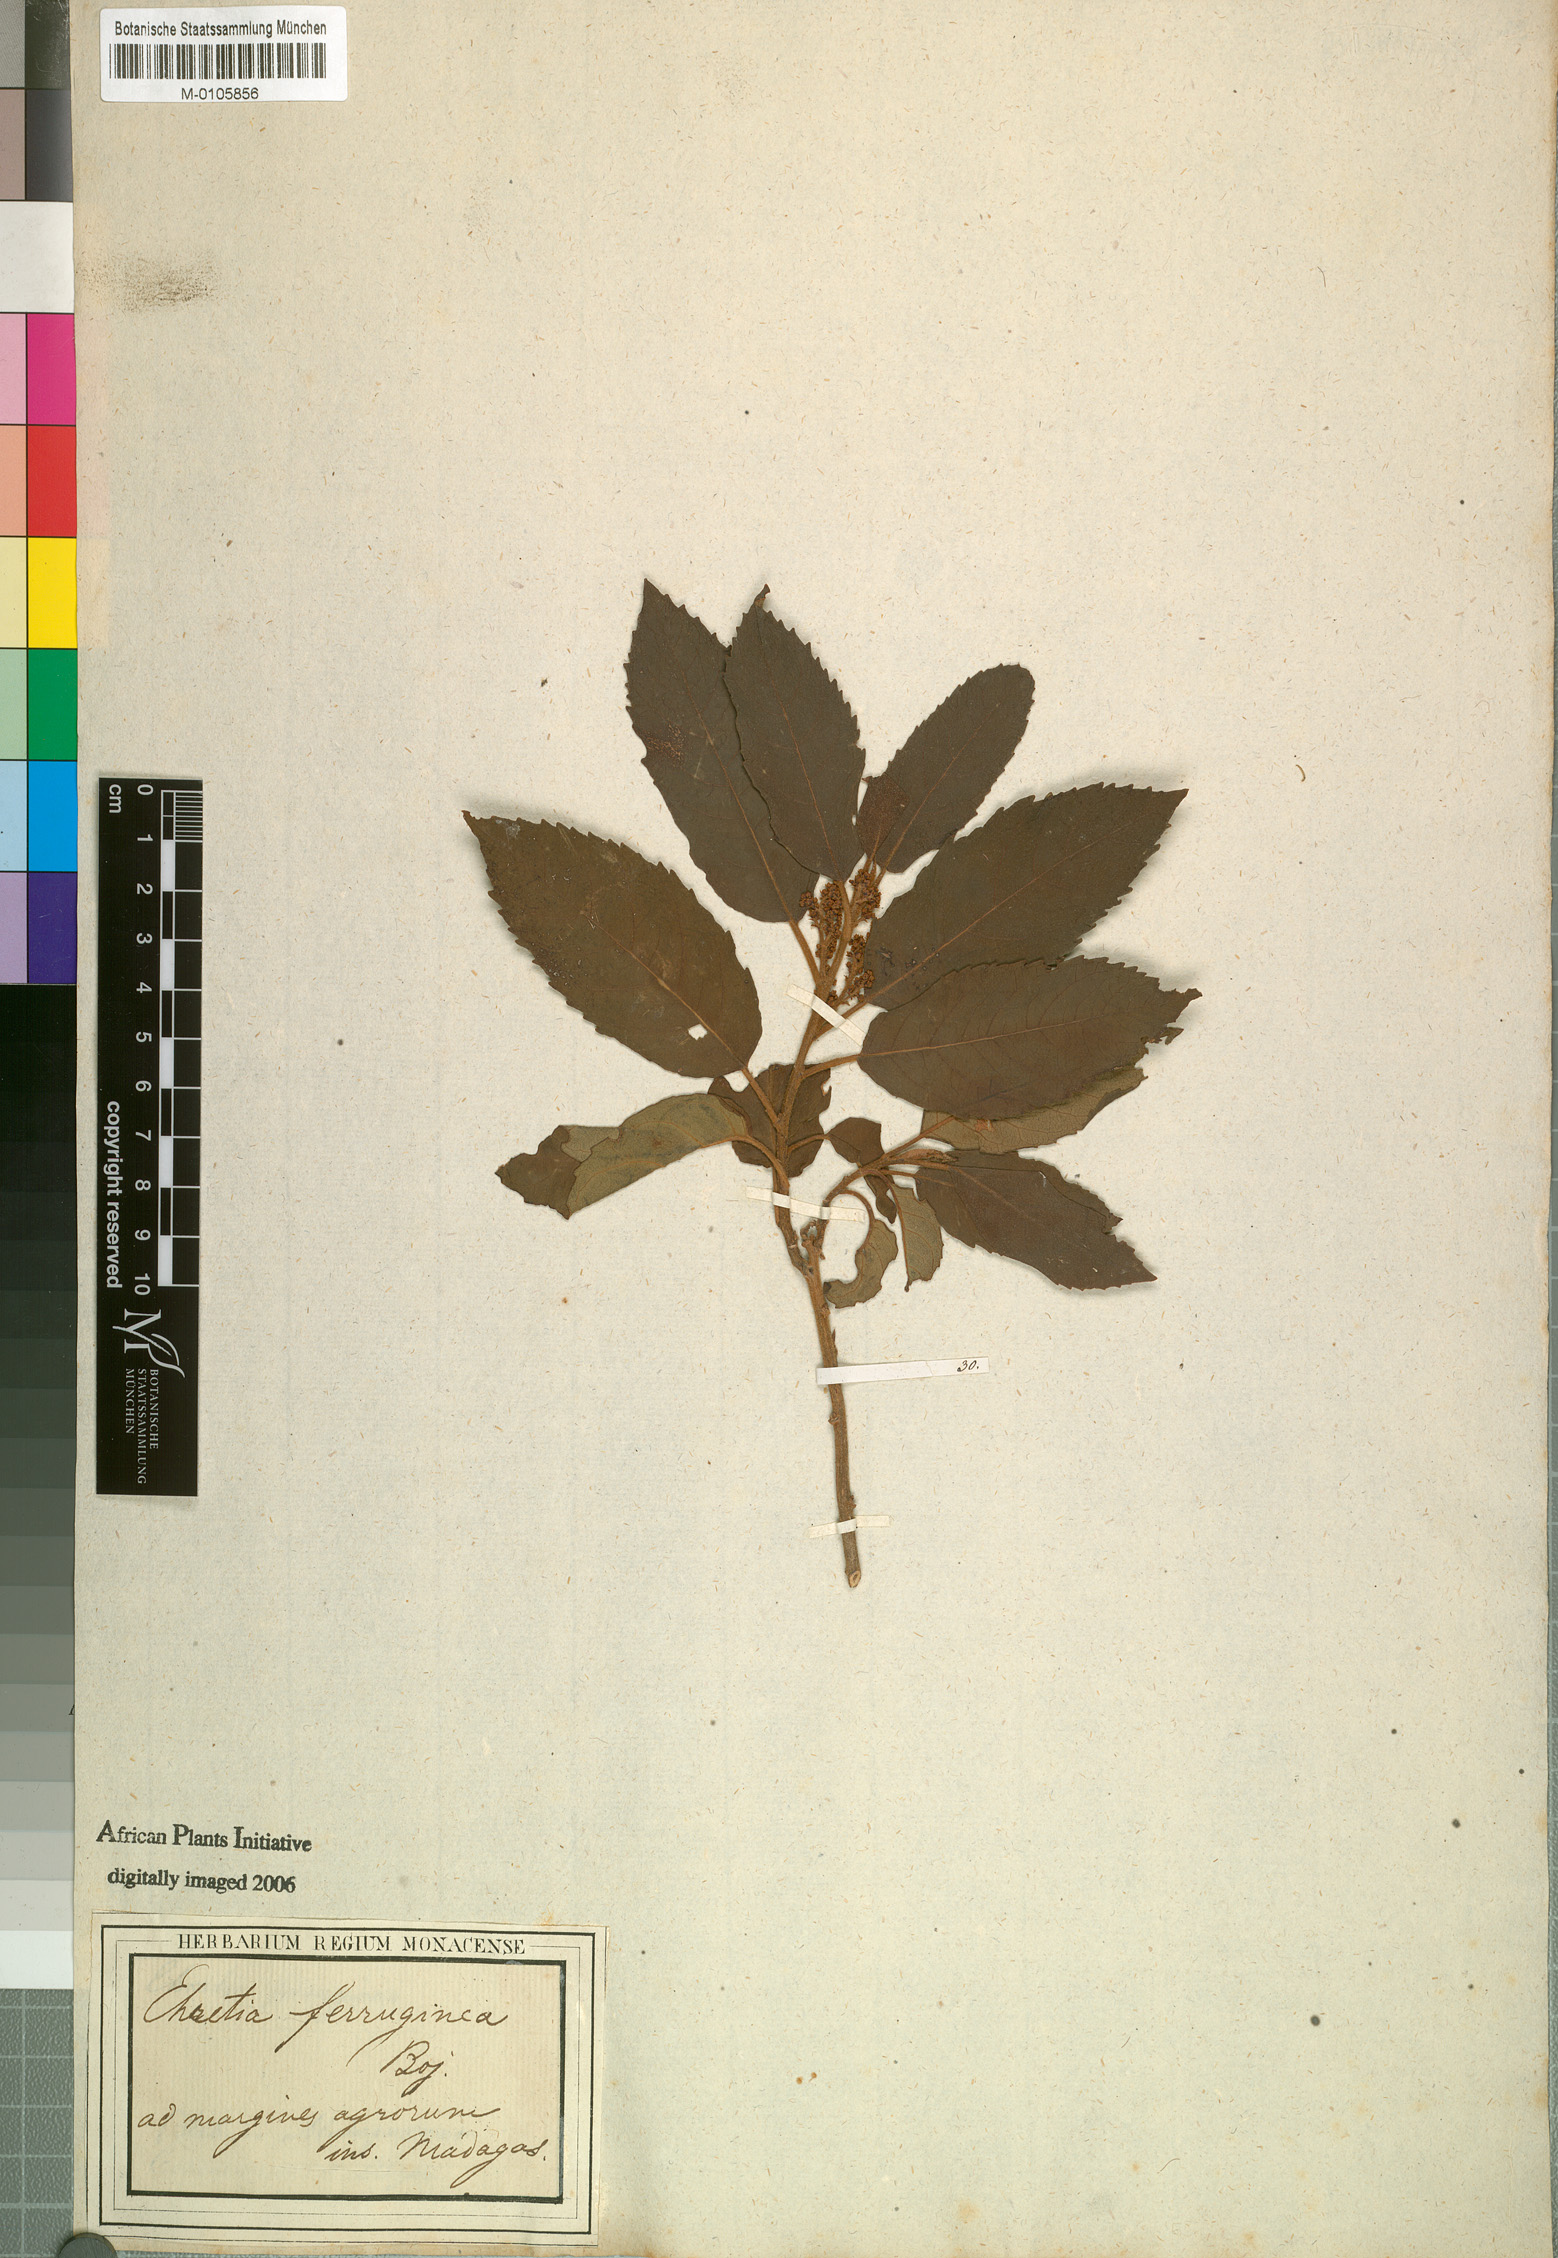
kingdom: Plantae
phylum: Tracheophyta
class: Magnoliopsida
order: Boraginales
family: Ehretiaceae
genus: Ehretia
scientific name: Ehretia
